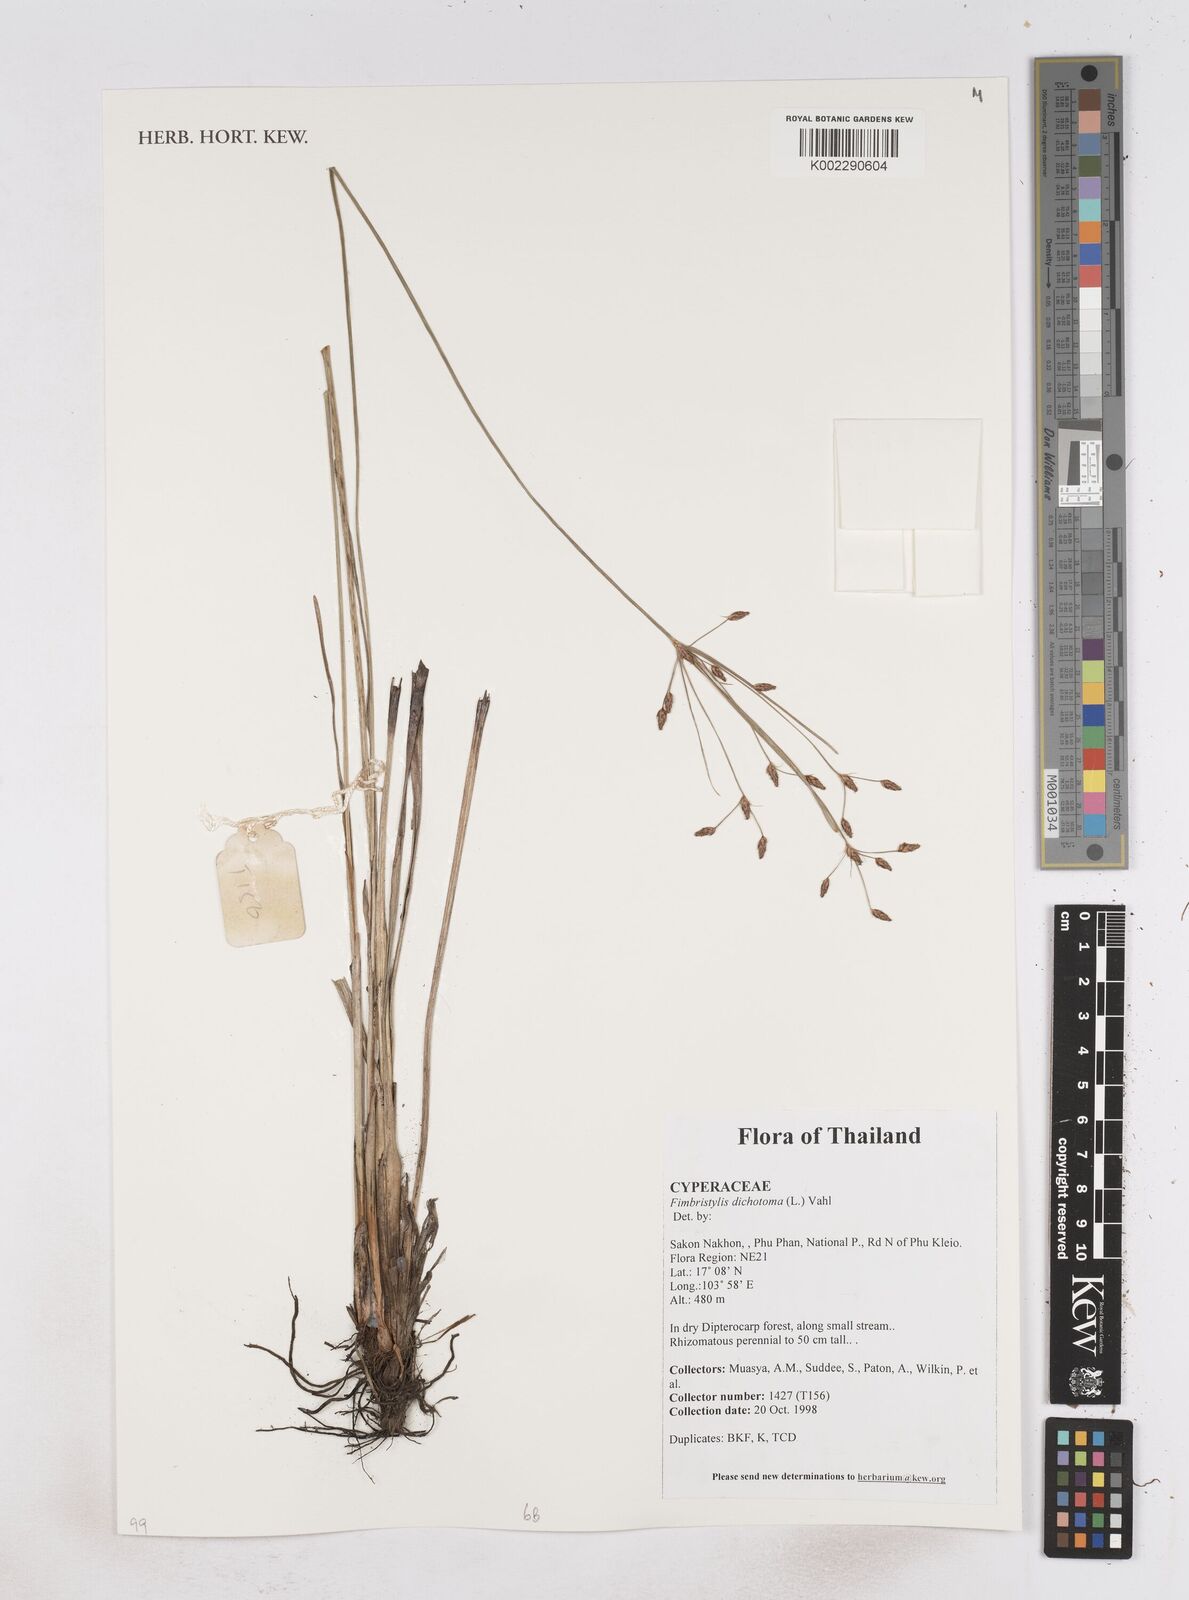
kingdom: Plantae
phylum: Tracheophyta
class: Liliopsida
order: Poales
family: Cyperaceae
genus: Fimbristylis
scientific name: Fimbristylis dichotoma
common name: Forked fimbry
